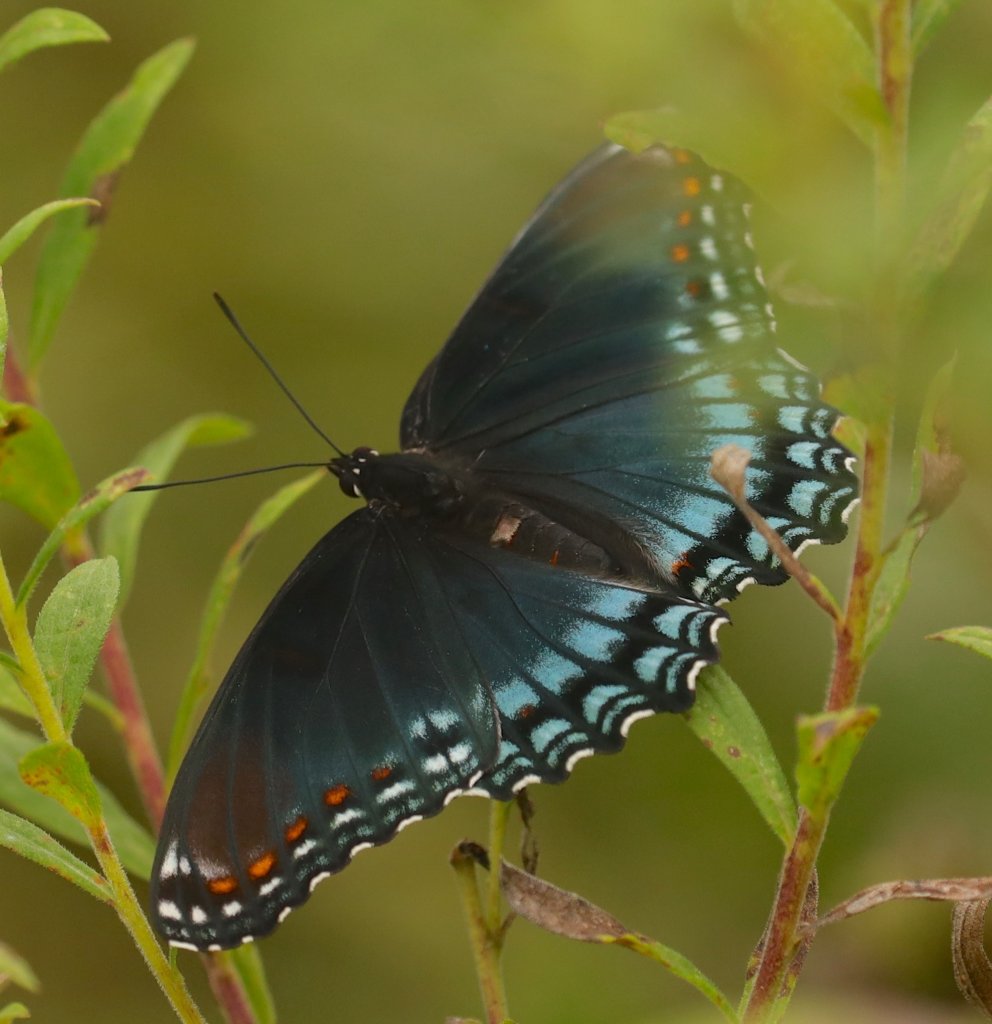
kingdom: Animalia
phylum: Arthropoda
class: Insecta
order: Lepidoptera
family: Nymphalidae
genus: Limenitis
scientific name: Limenitis astyanax
